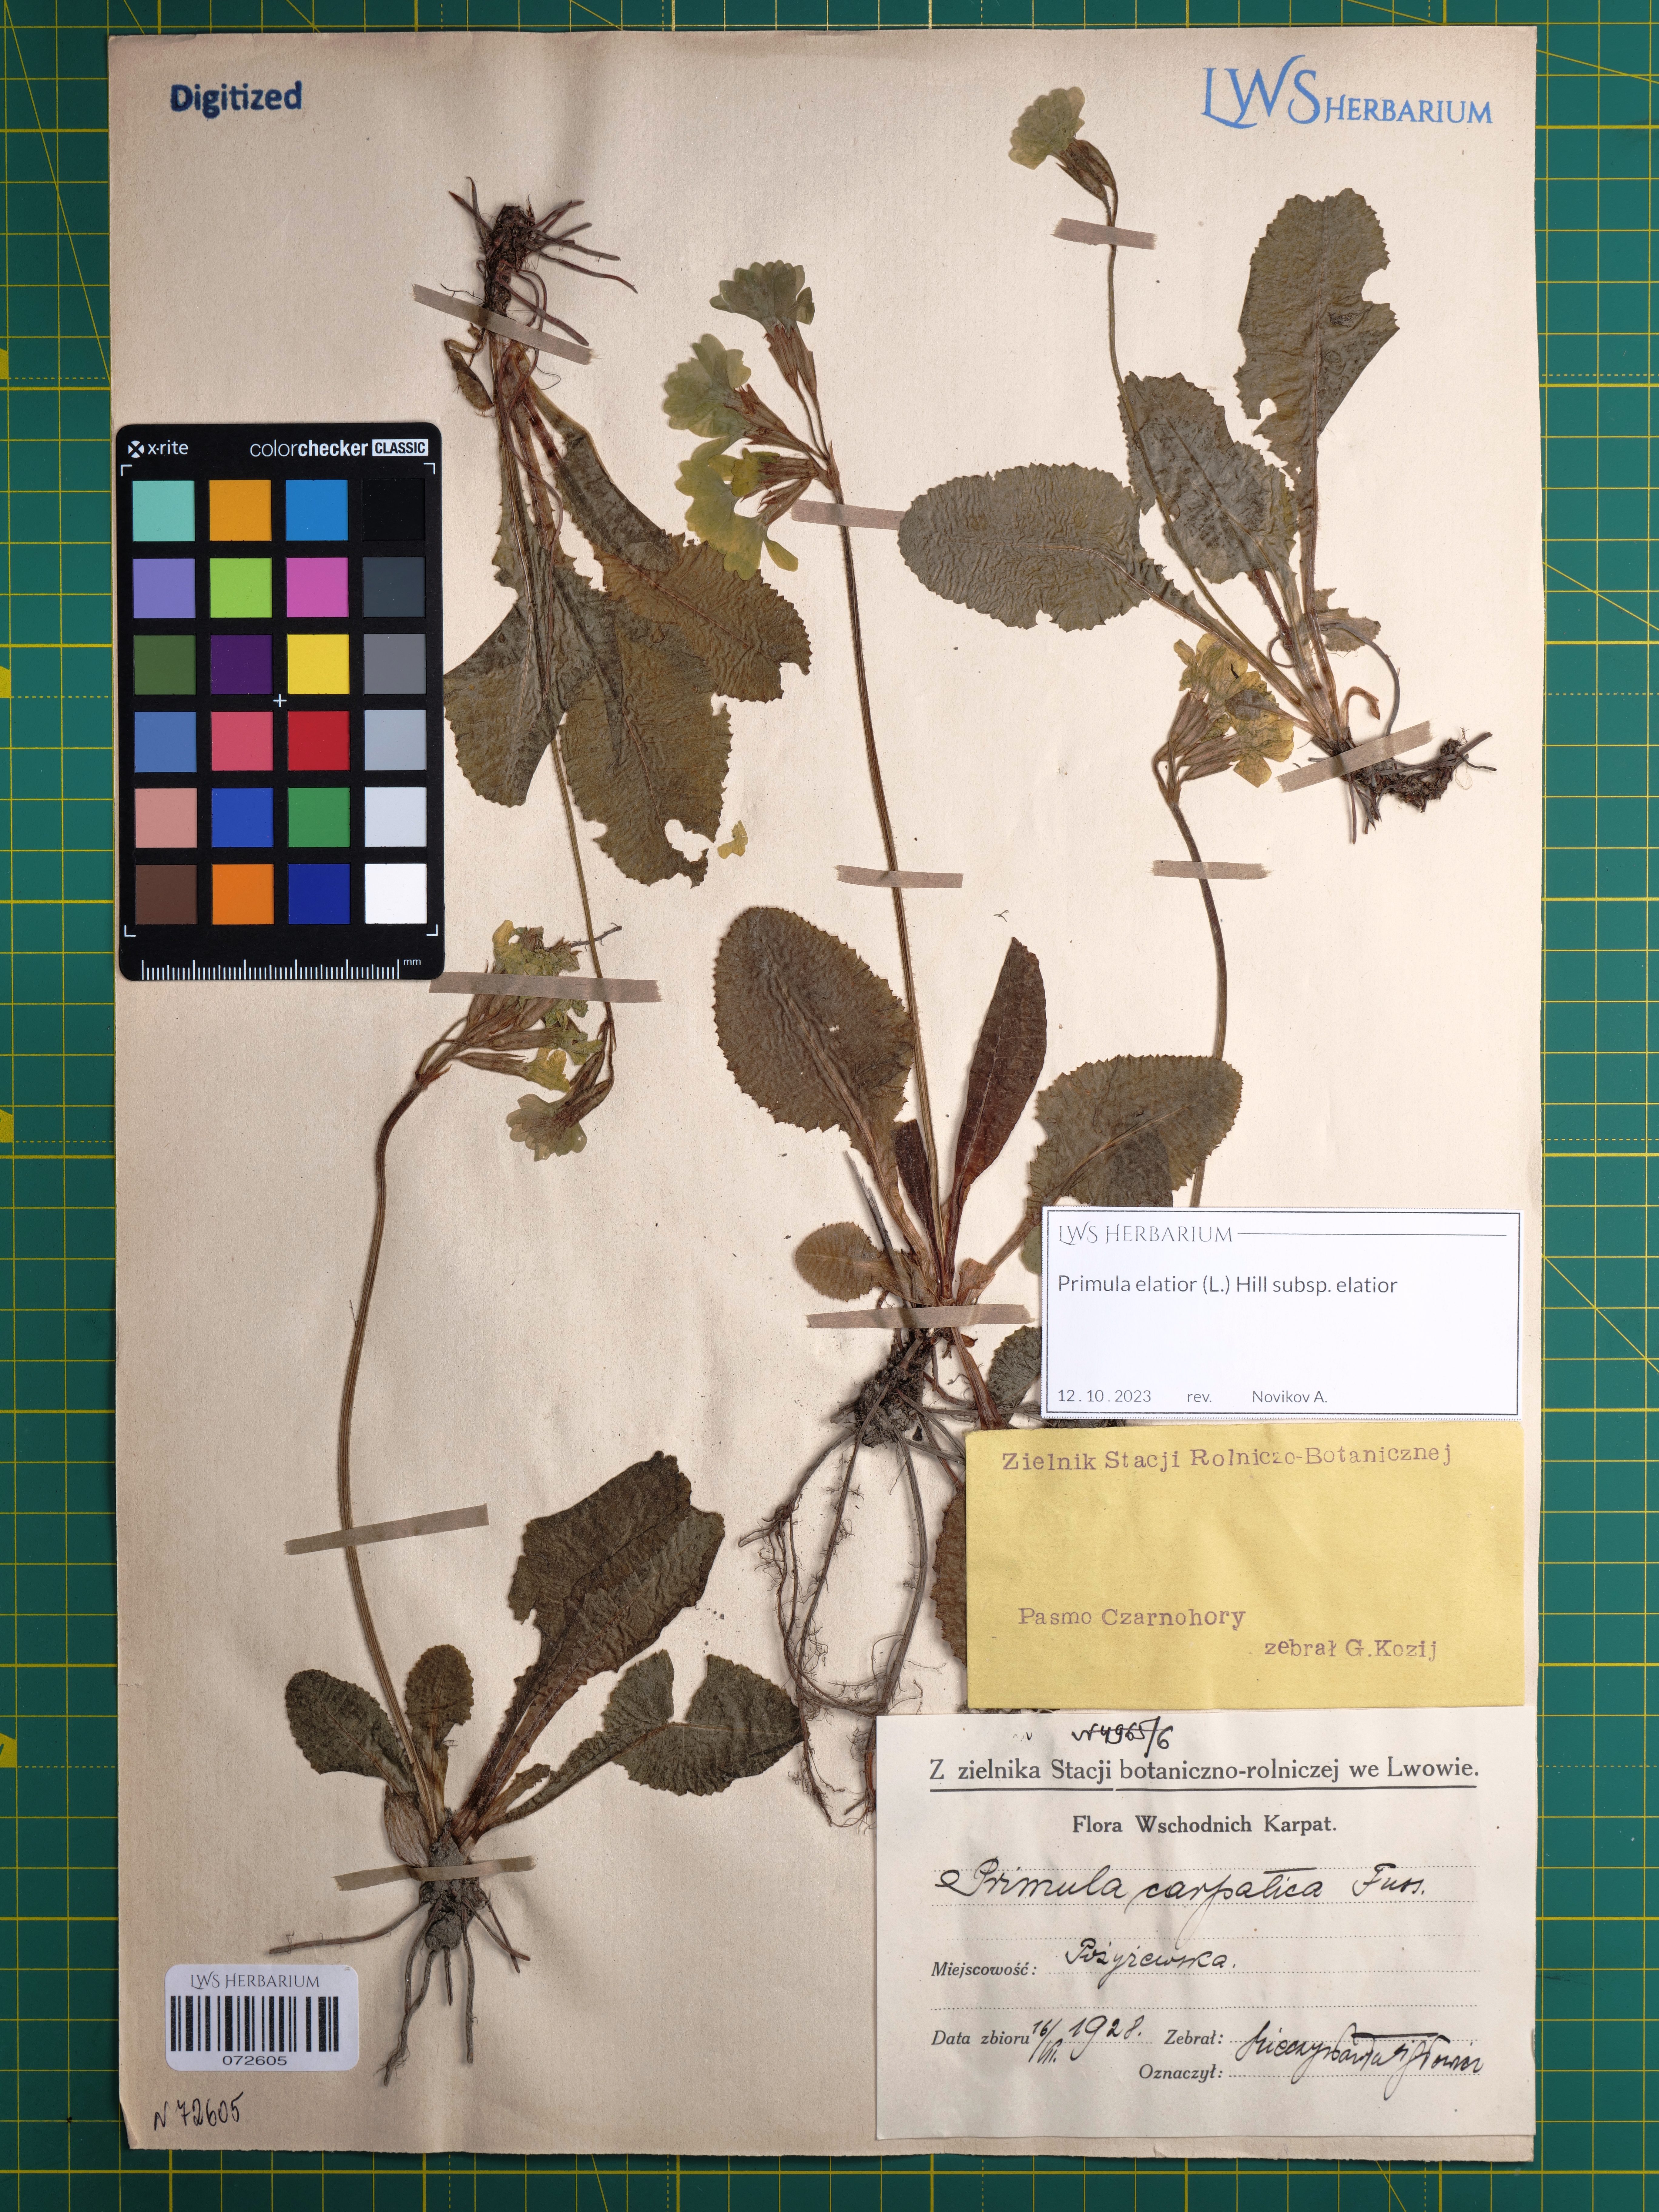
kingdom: Plantae
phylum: Tracheophyta
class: Magnoliopsida
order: Ericales
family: Primulaceae
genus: Primula
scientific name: Primula elatior
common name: Oxlip
